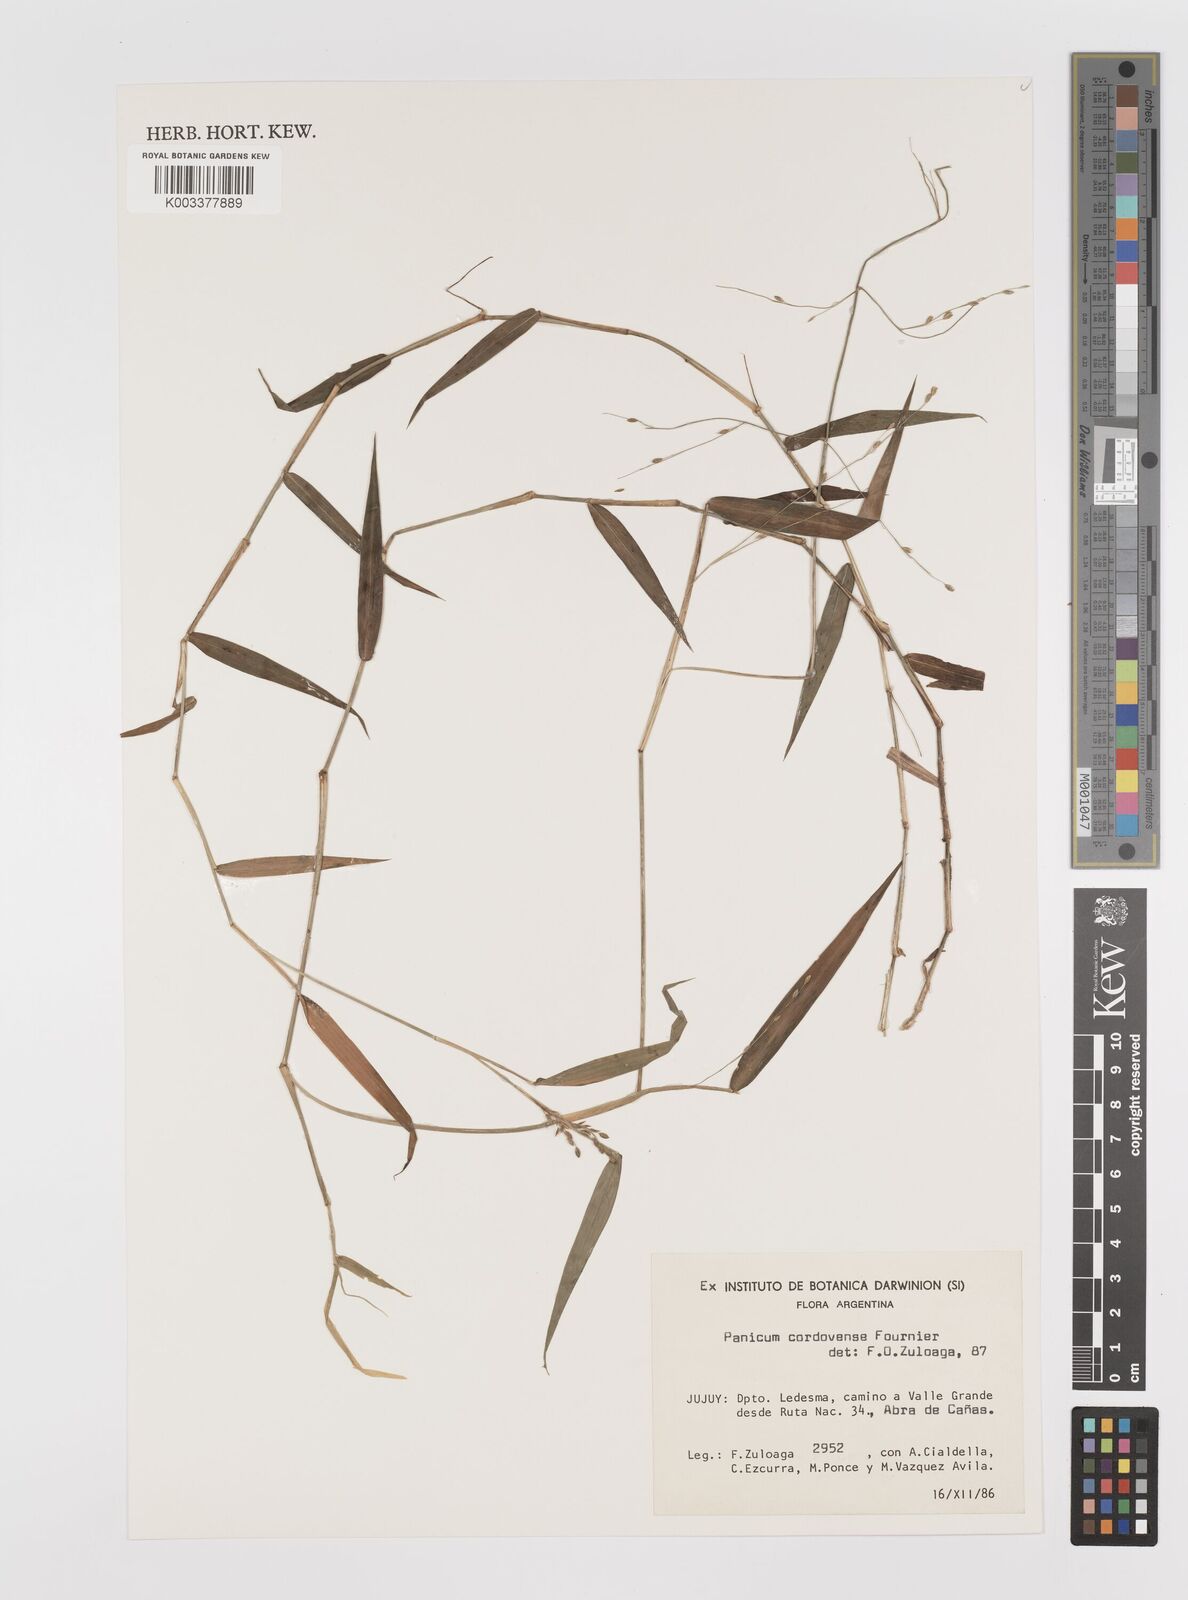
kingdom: Plantae
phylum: Tracheophyta
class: Liliopsida
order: Poales
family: Poaceae
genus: Parodiophyllochloa
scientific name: Parodiophyllochloa cordovensis
